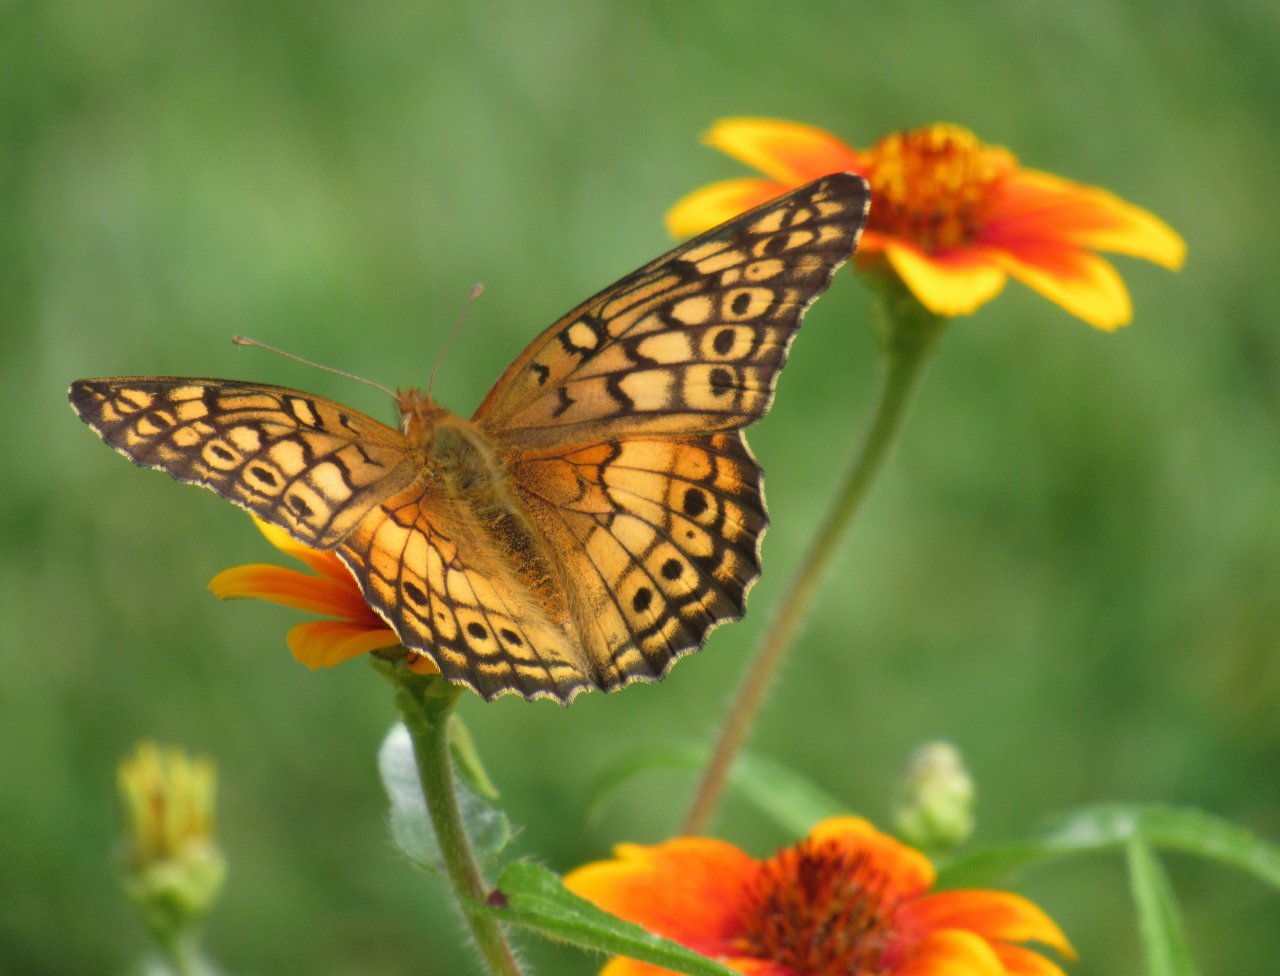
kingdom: Animalia
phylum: Arthropoda
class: Insecta
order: Lepidoptera
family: Nymphalidae
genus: Euptoieta
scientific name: Euptoieta claudia
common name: Variegated Fritillary
